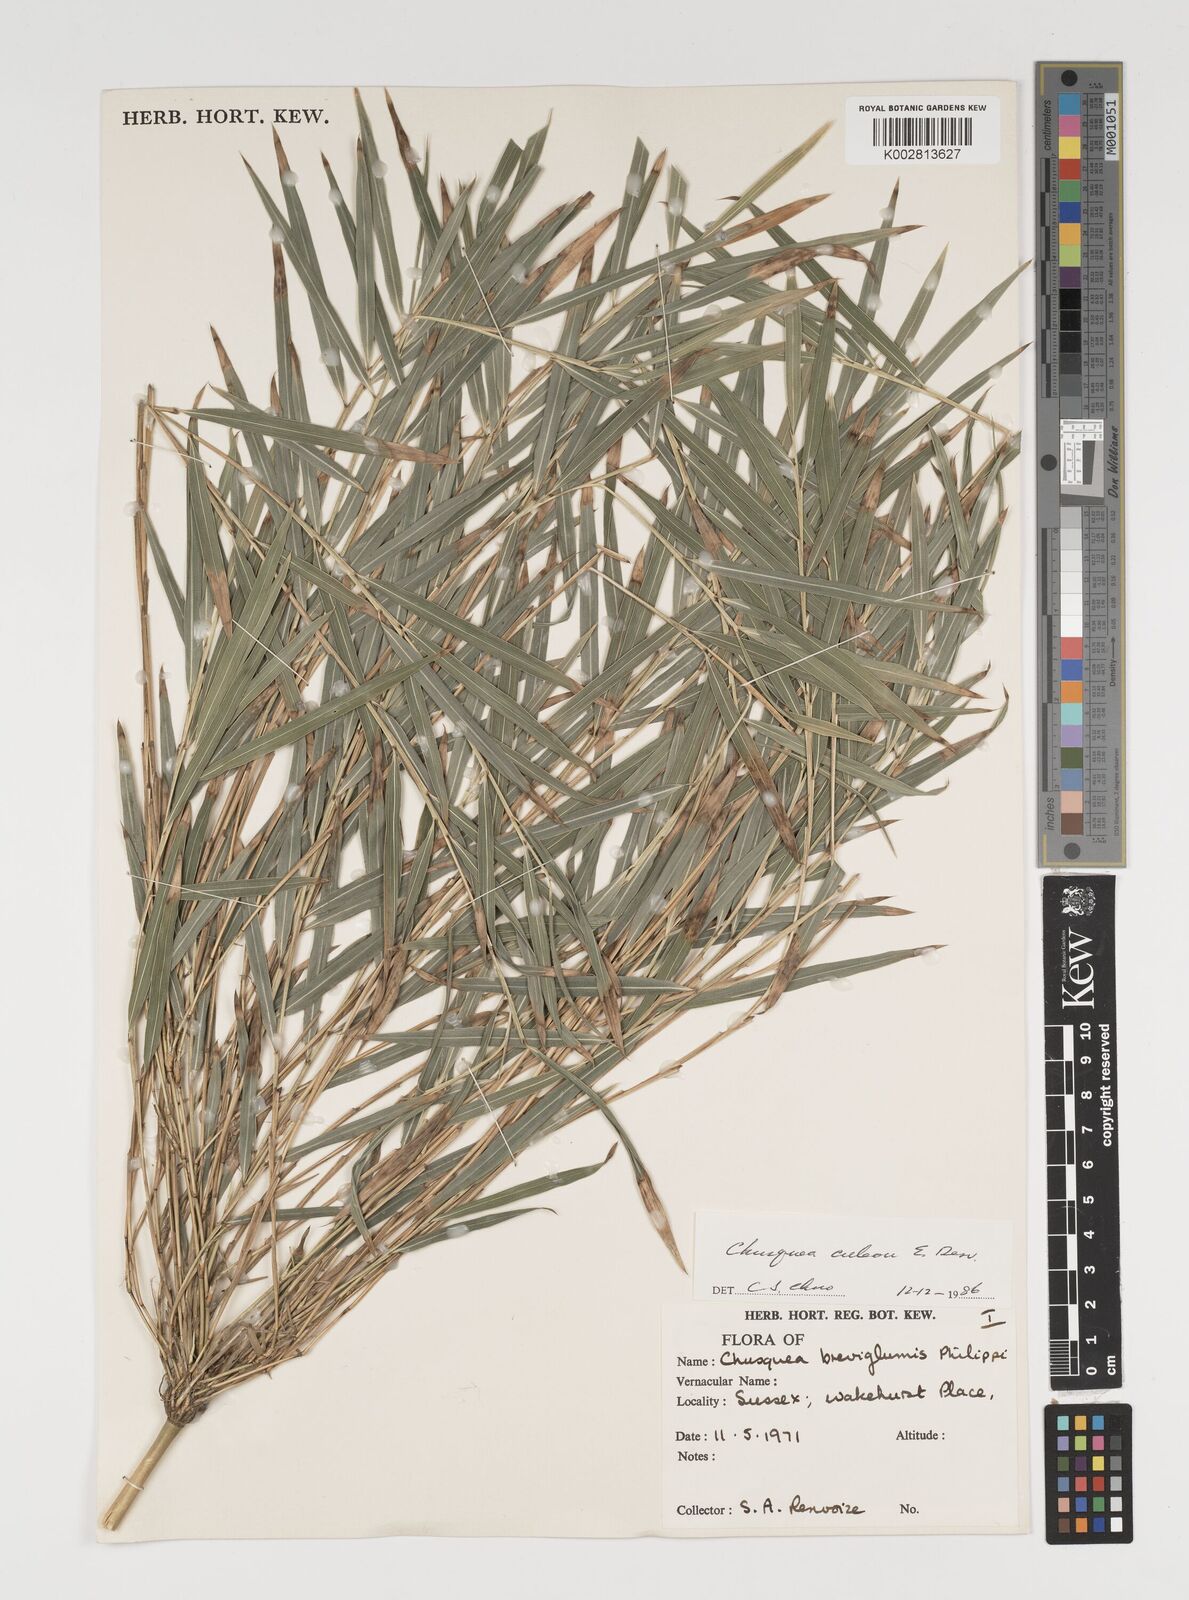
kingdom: Plantae
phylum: Tracheophyta
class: Liliopsida
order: Poales
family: Poaceae
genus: Chusquea
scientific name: Chusquea culeou
